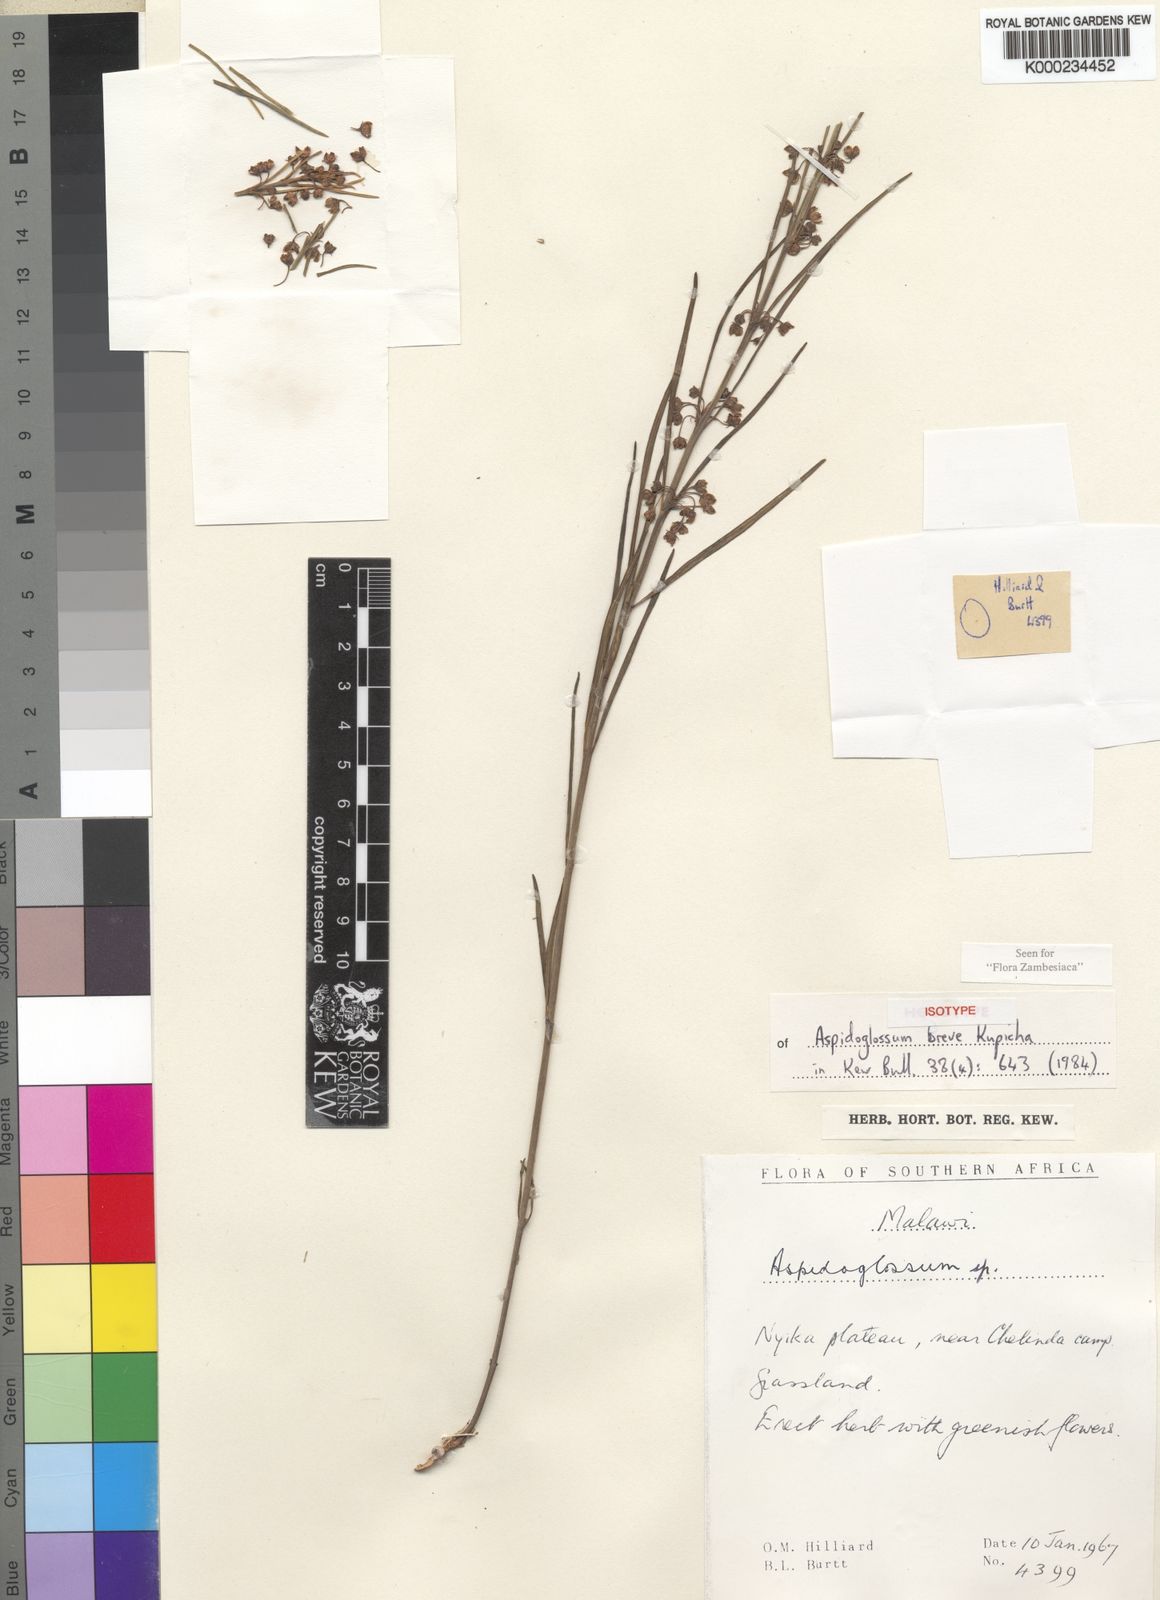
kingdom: Plantae
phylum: Tracheophyta
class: Magnoliopsida
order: Gentianales
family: Apocynaceae
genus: Aspidoglossum
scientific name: Aspidoglossum breve
